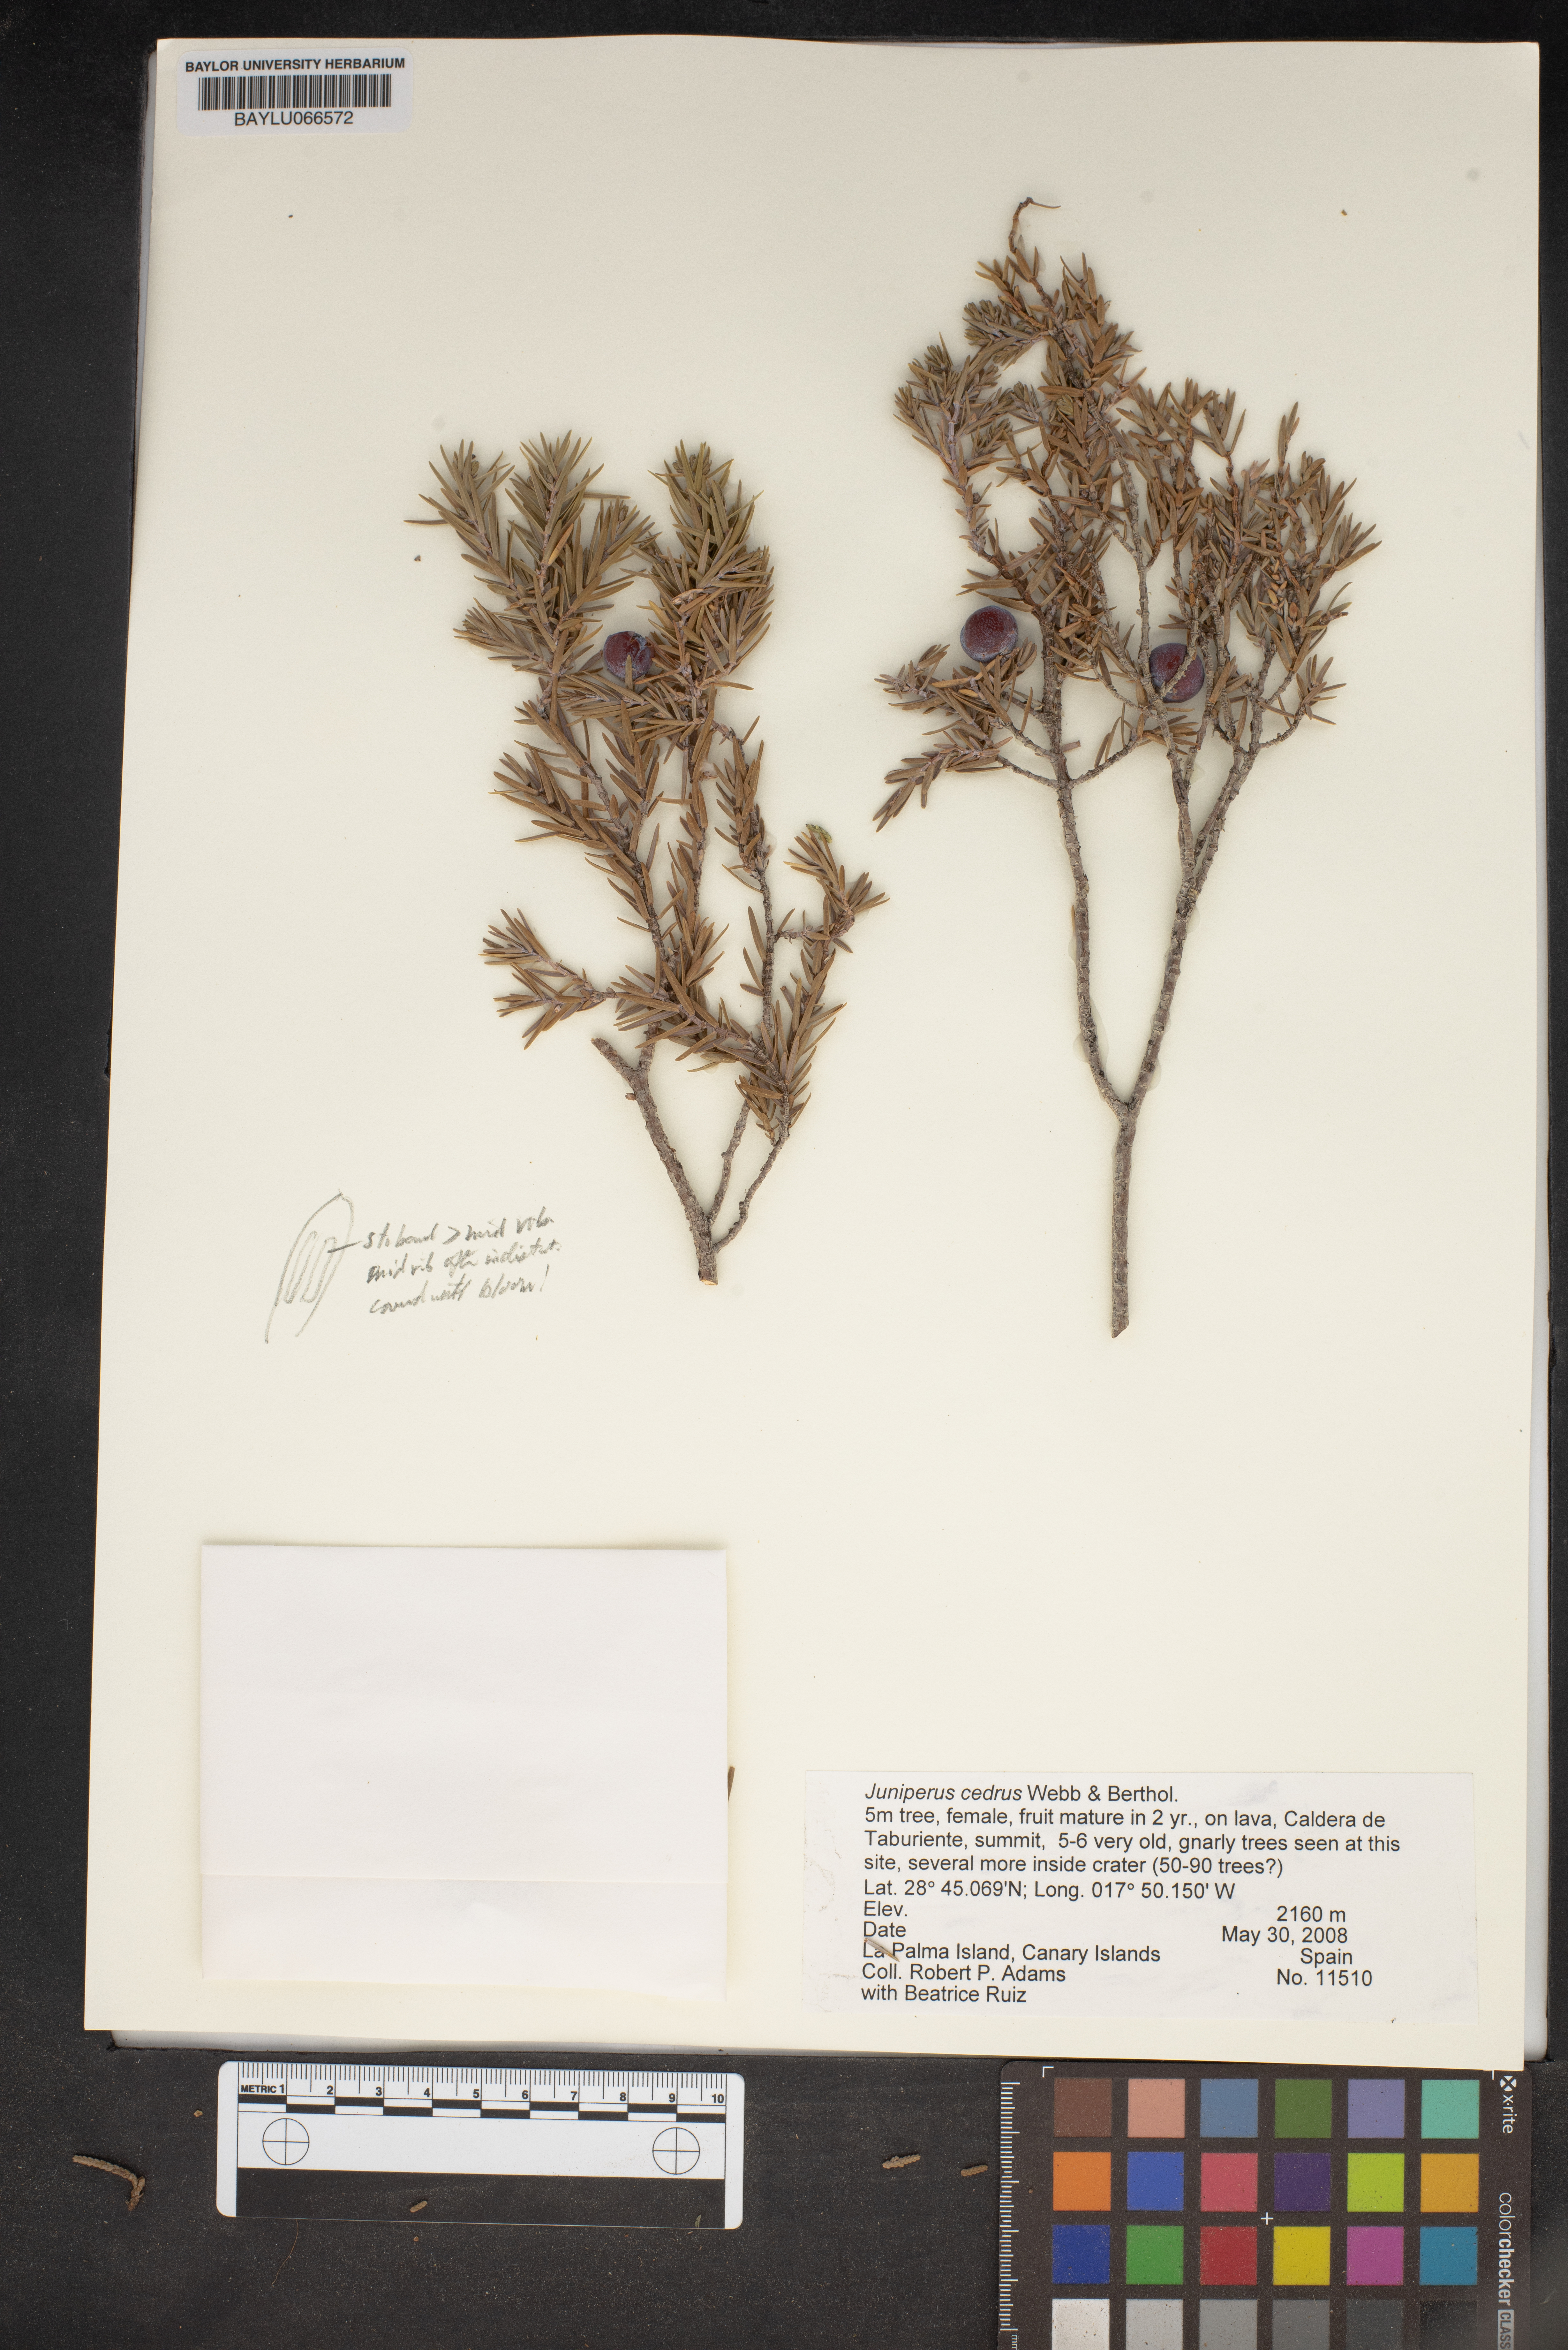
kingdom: Plantae
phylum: Tracheophyta
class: Pinopsida
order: Pinales
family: Cupressaceae
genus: Juniperus
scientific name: Juniperus cedrus
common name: Canary islands juniper
